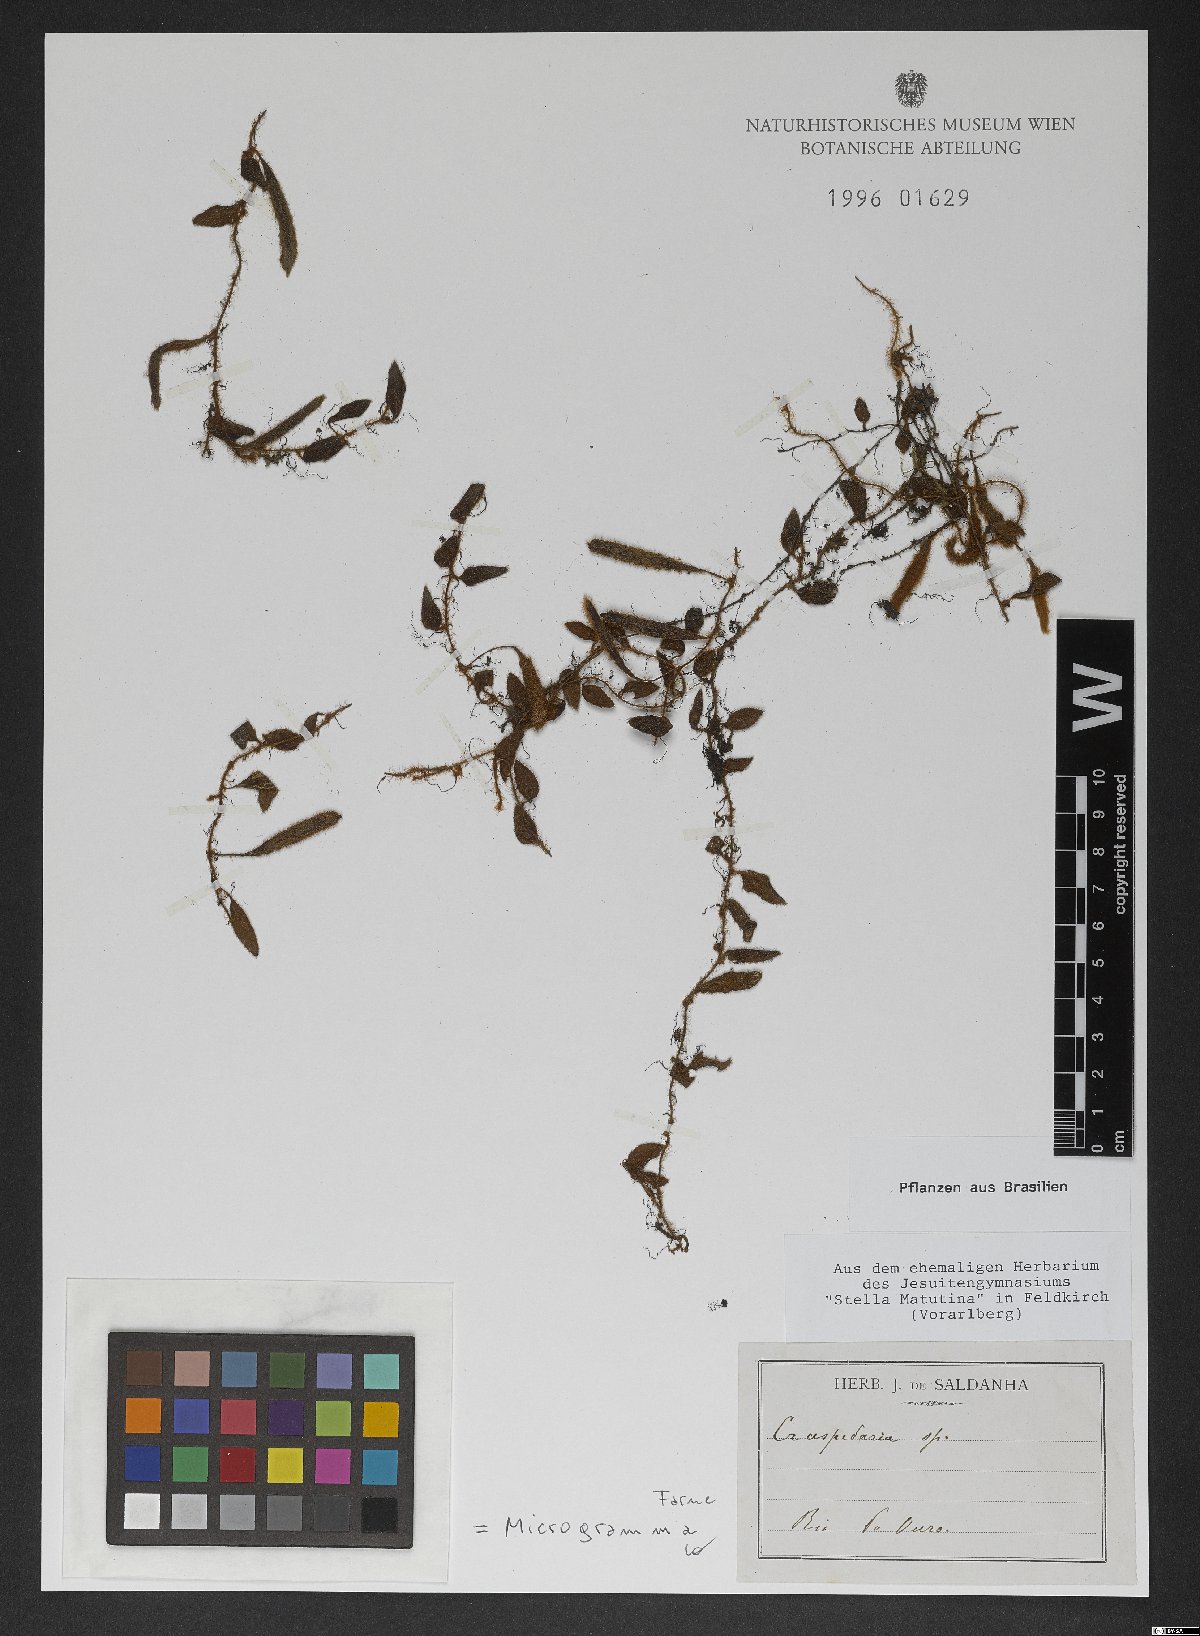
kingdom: Plantae
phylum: Tracheophyta
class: Polypodiopsida
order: Polypodiales
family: Polypodiaceae
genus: Microgramma
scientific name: Microgramma
